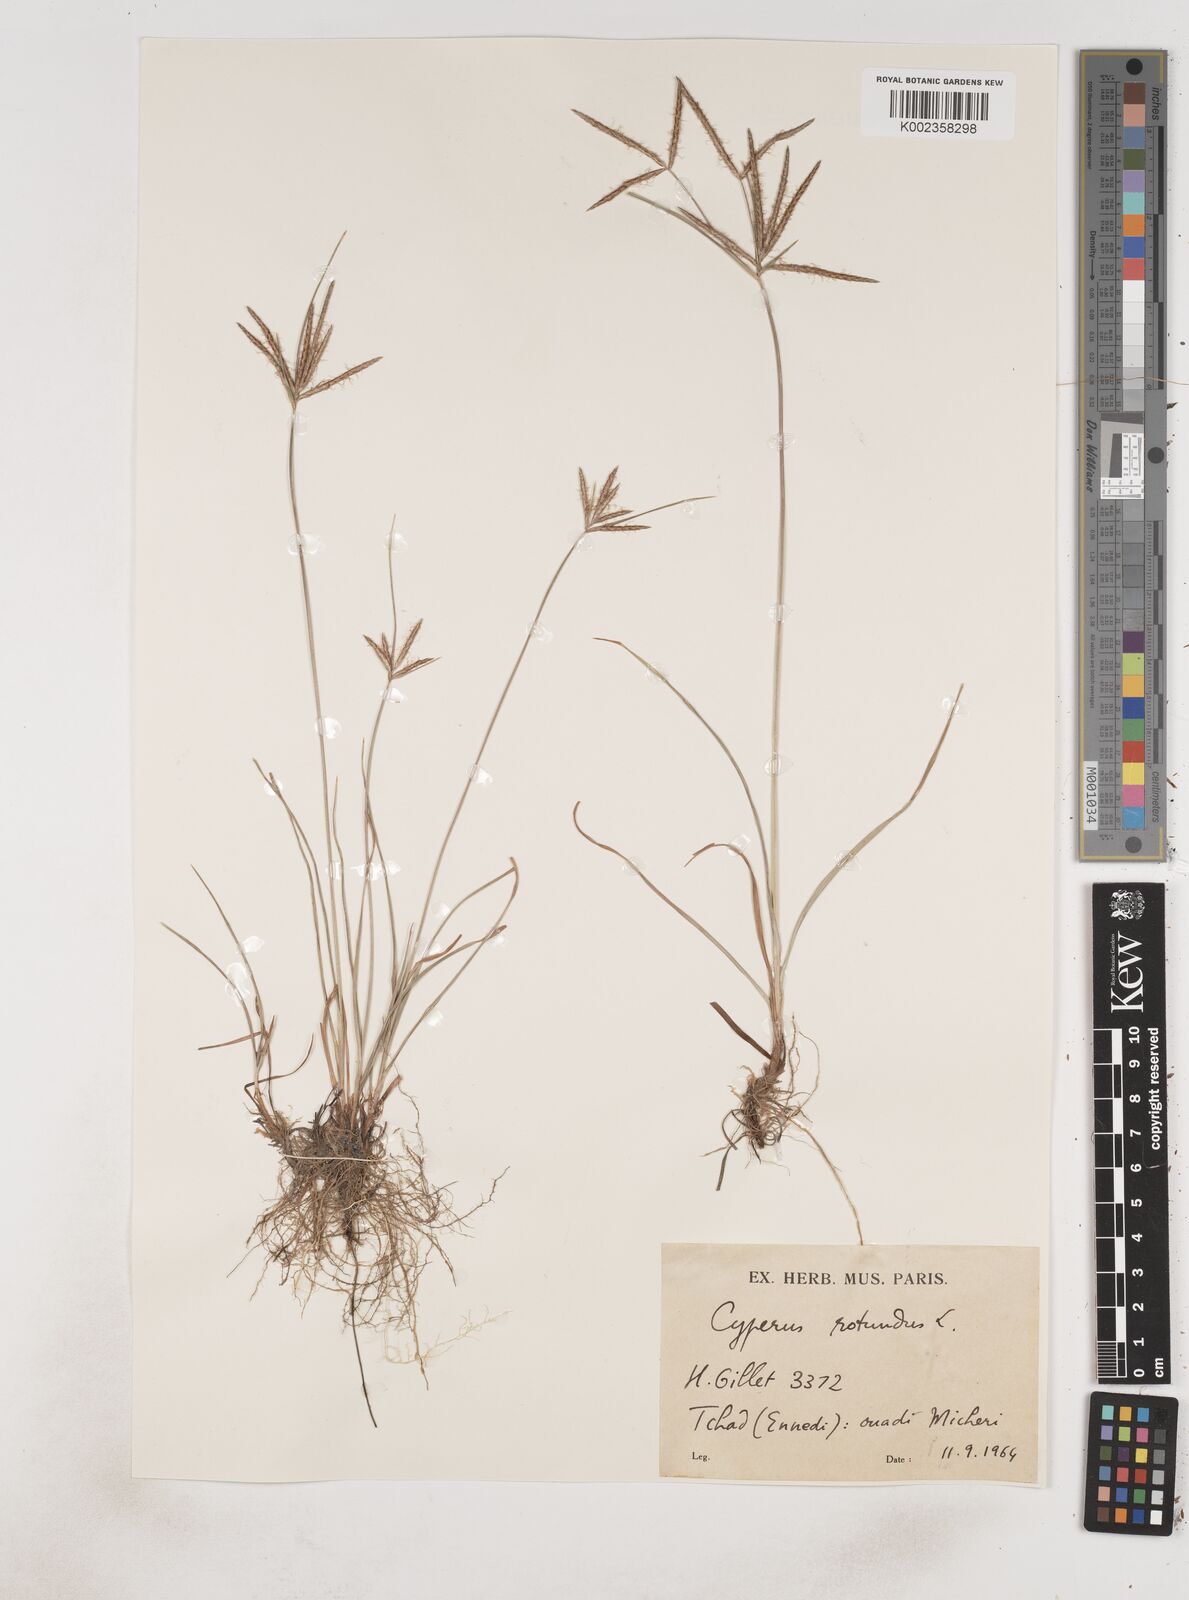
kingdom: Plantae
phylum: Tracheophyta
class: Liliopsida
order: Poales
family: Cyperaceae
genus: Cyperus
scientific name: Cyperus rotundus
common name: Nutgrass
